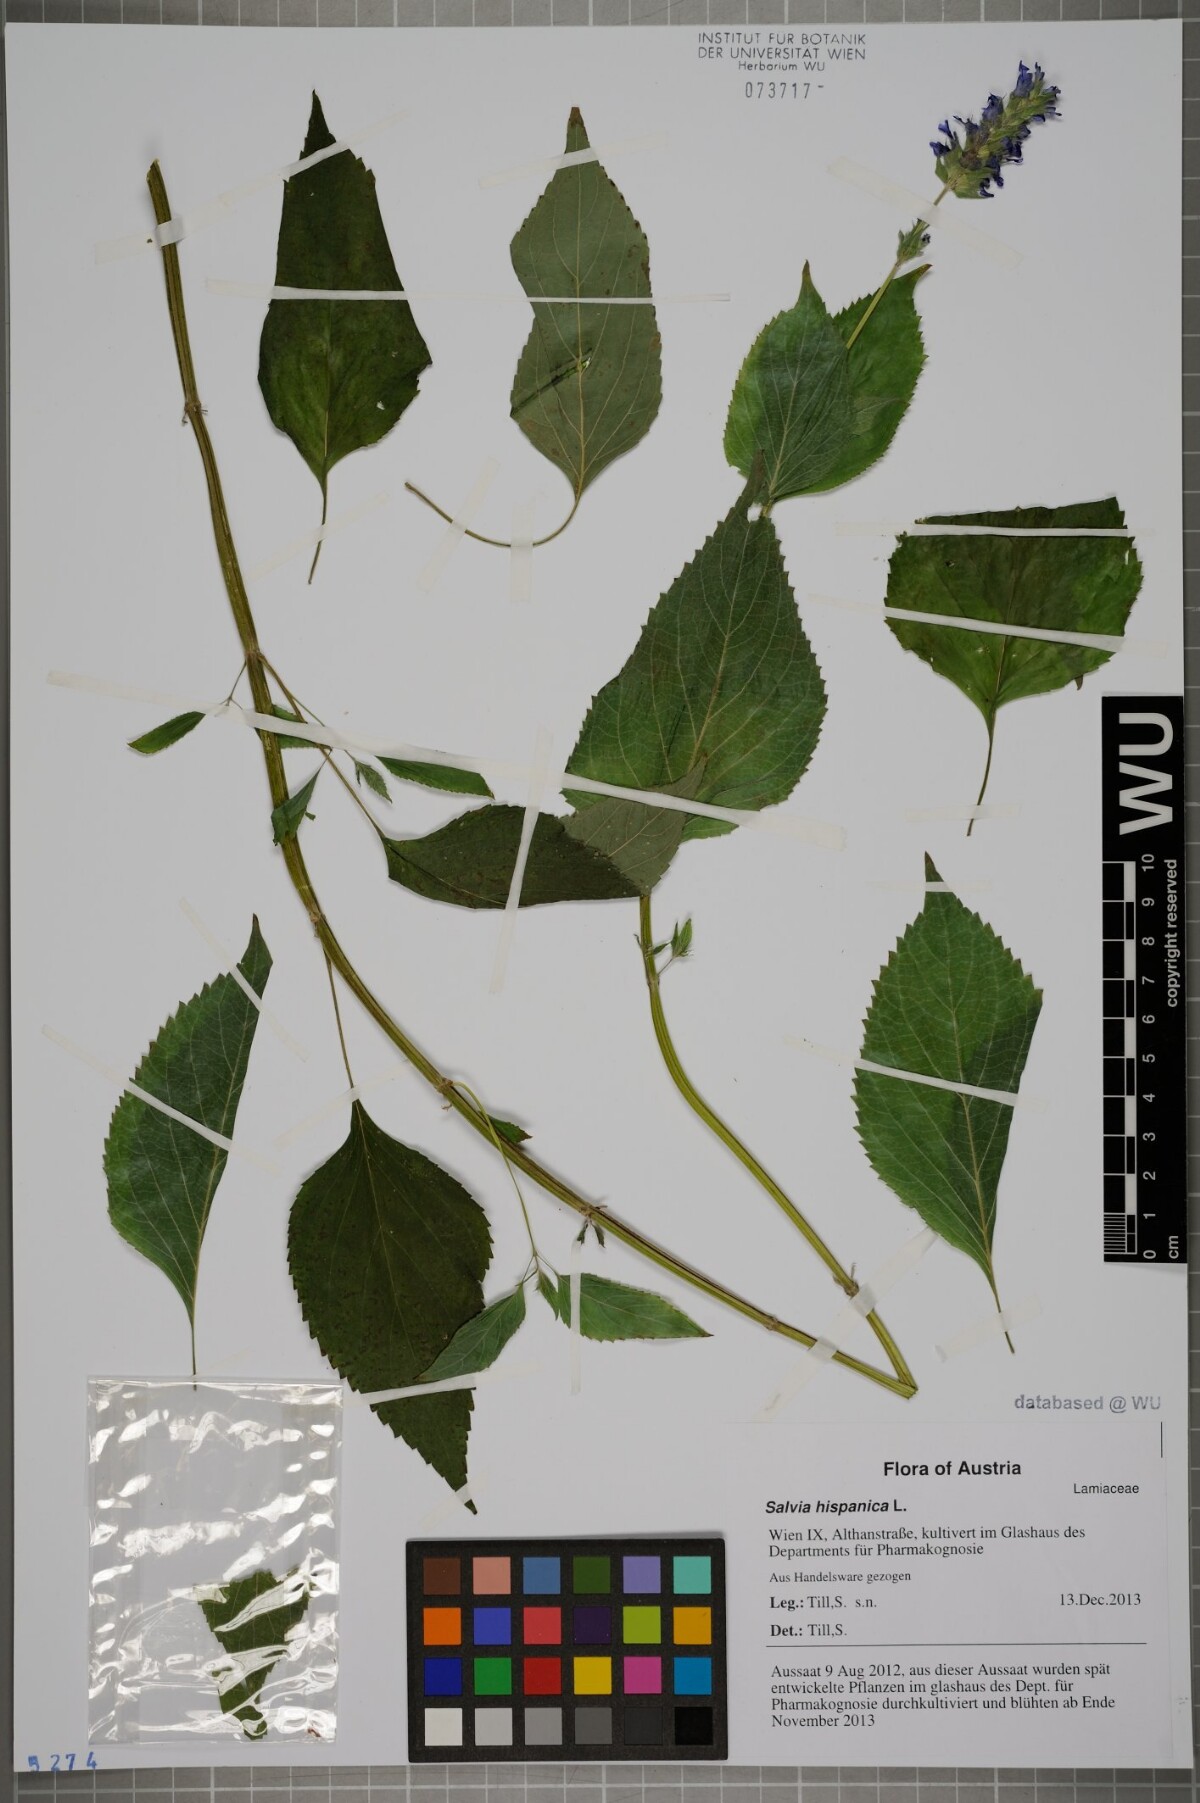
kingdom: Plantae
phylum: Tracheophyta
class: Magnoliopsida
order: Lamiales
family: Lamiaceae
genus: Salvia
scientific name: Salvia hispanica
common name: Chia
